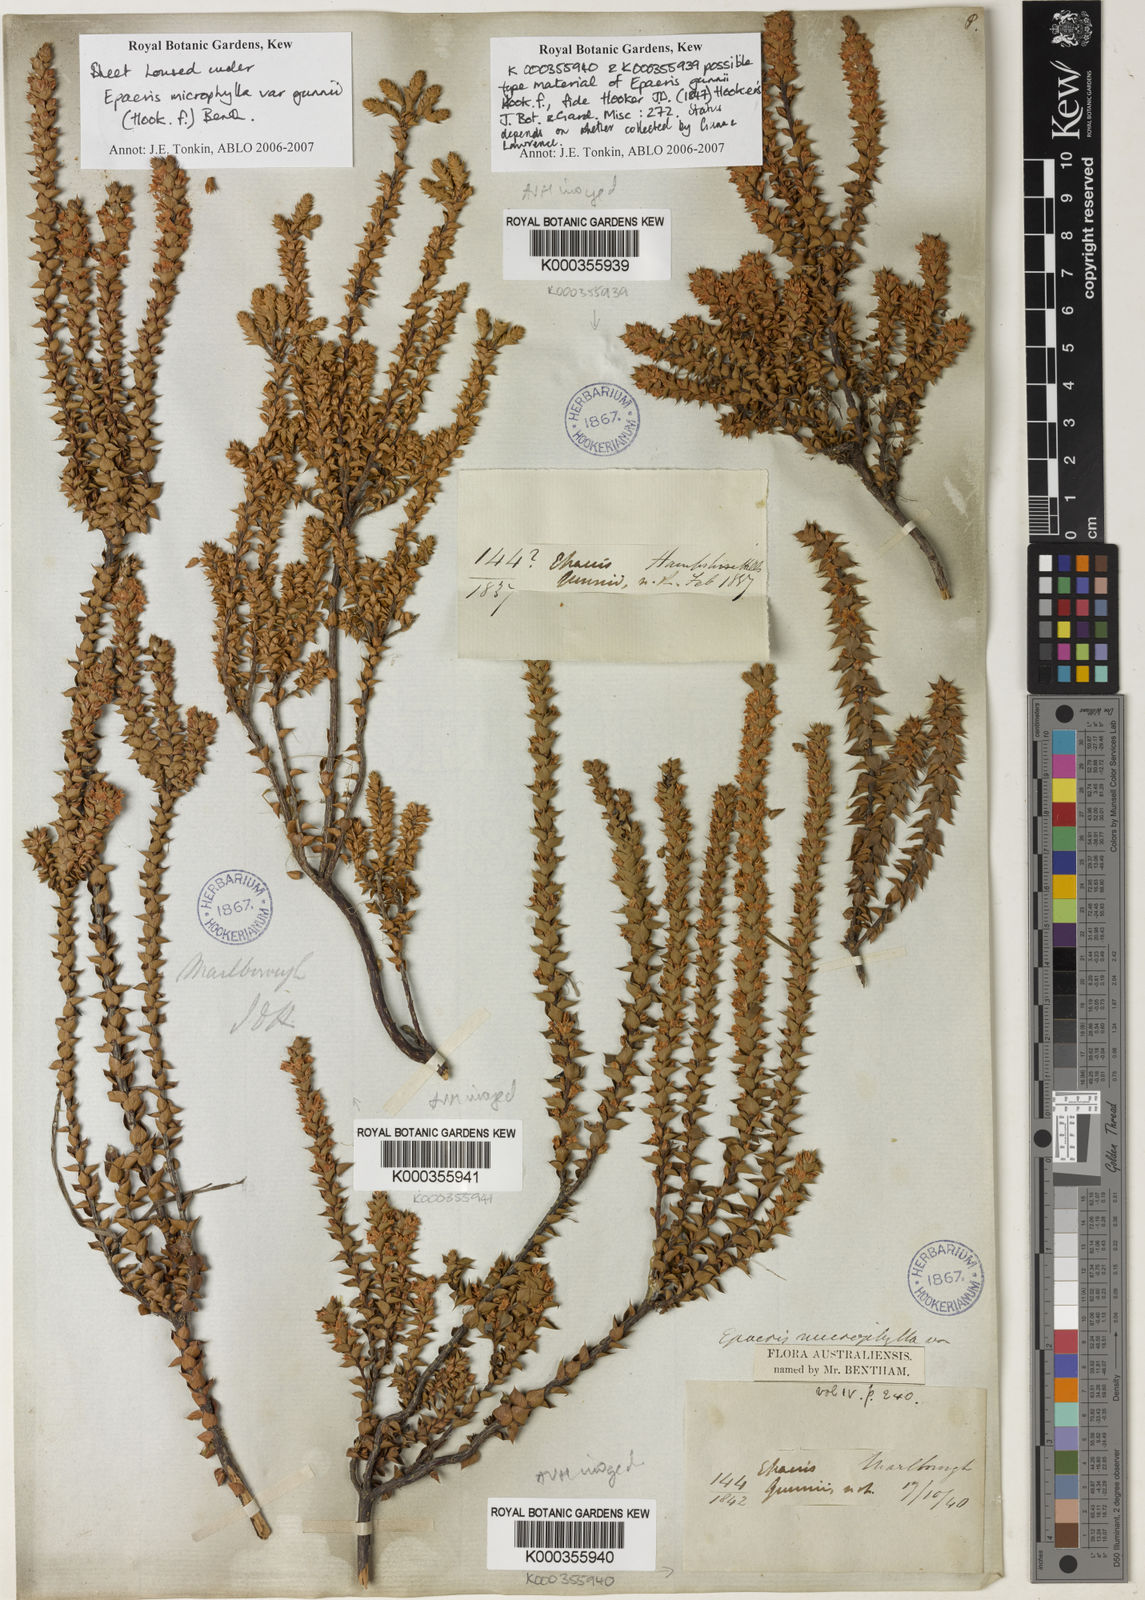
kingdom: Plantae
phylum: Tracheophyta
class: Magnoliopsida
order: Ericales
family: Ericaceae
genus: Epacris
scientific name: Epacris microphylla
